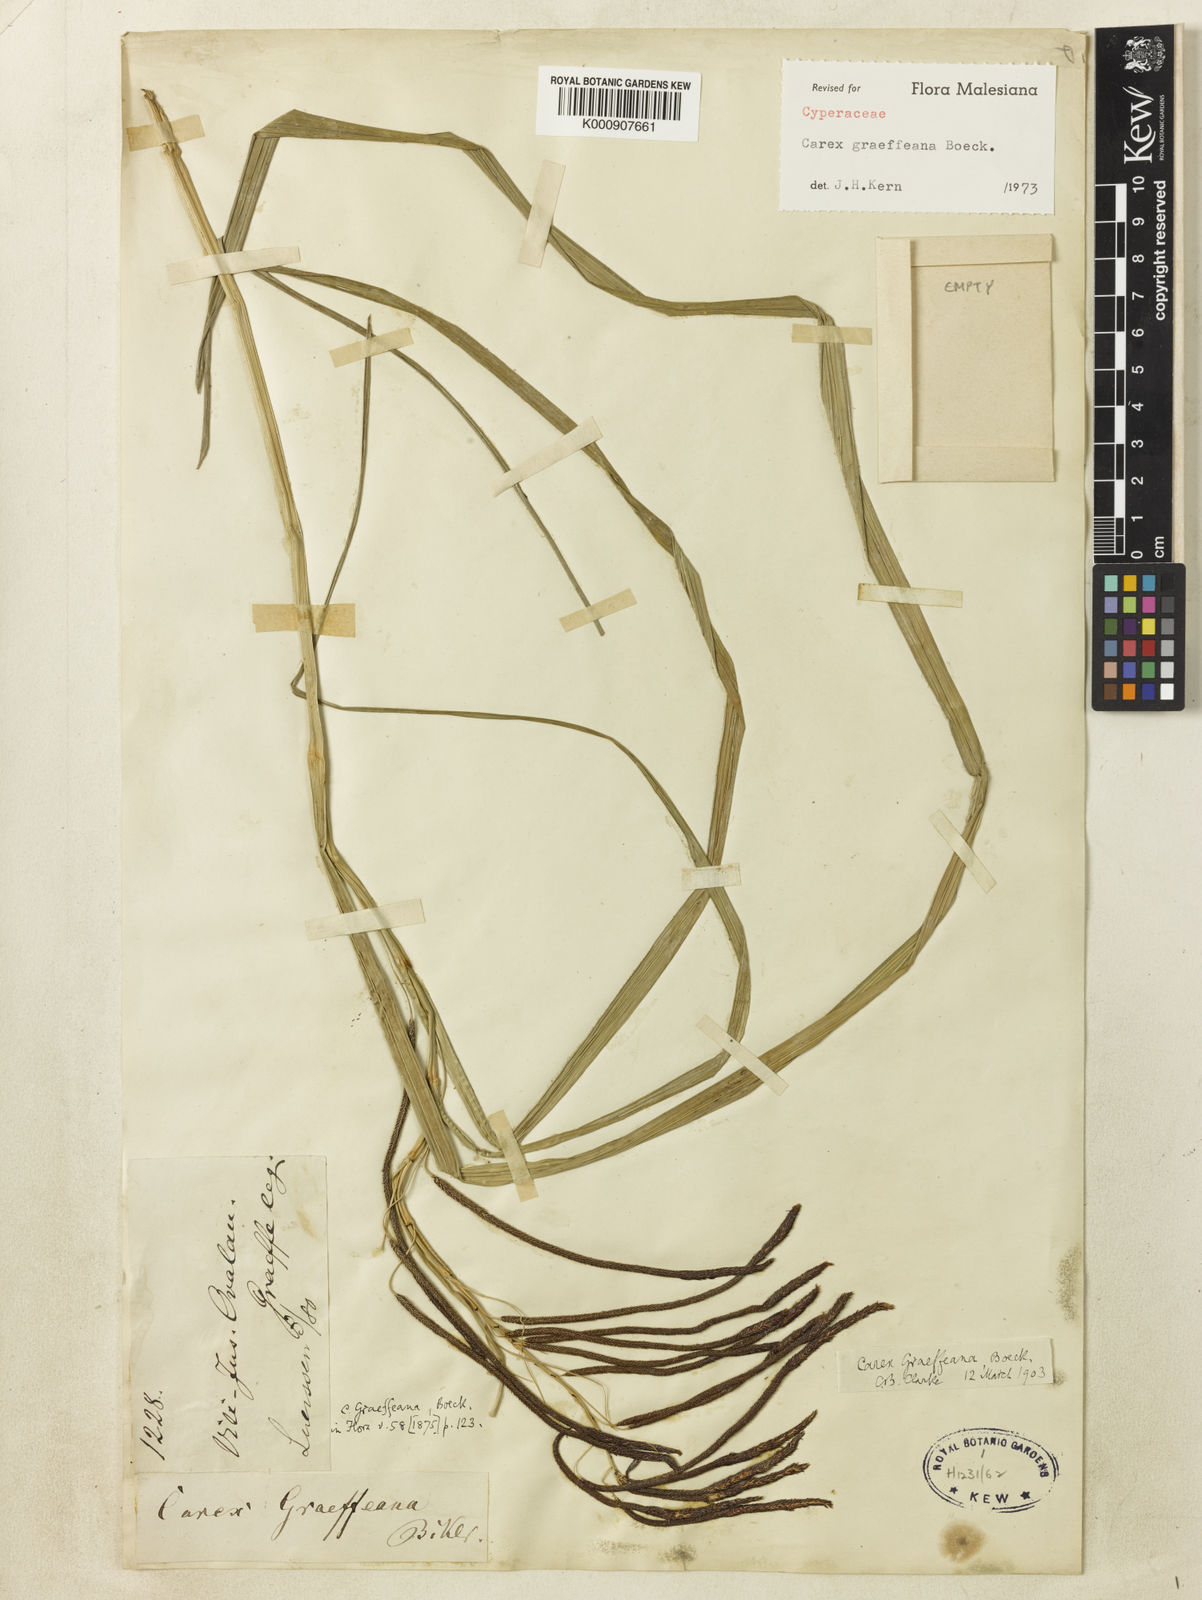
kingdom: Plantae
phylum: Tracheophyta
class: Liliopsida
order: Poales
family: Cyperaceae
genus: Carex
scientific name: Carex graeffeana
